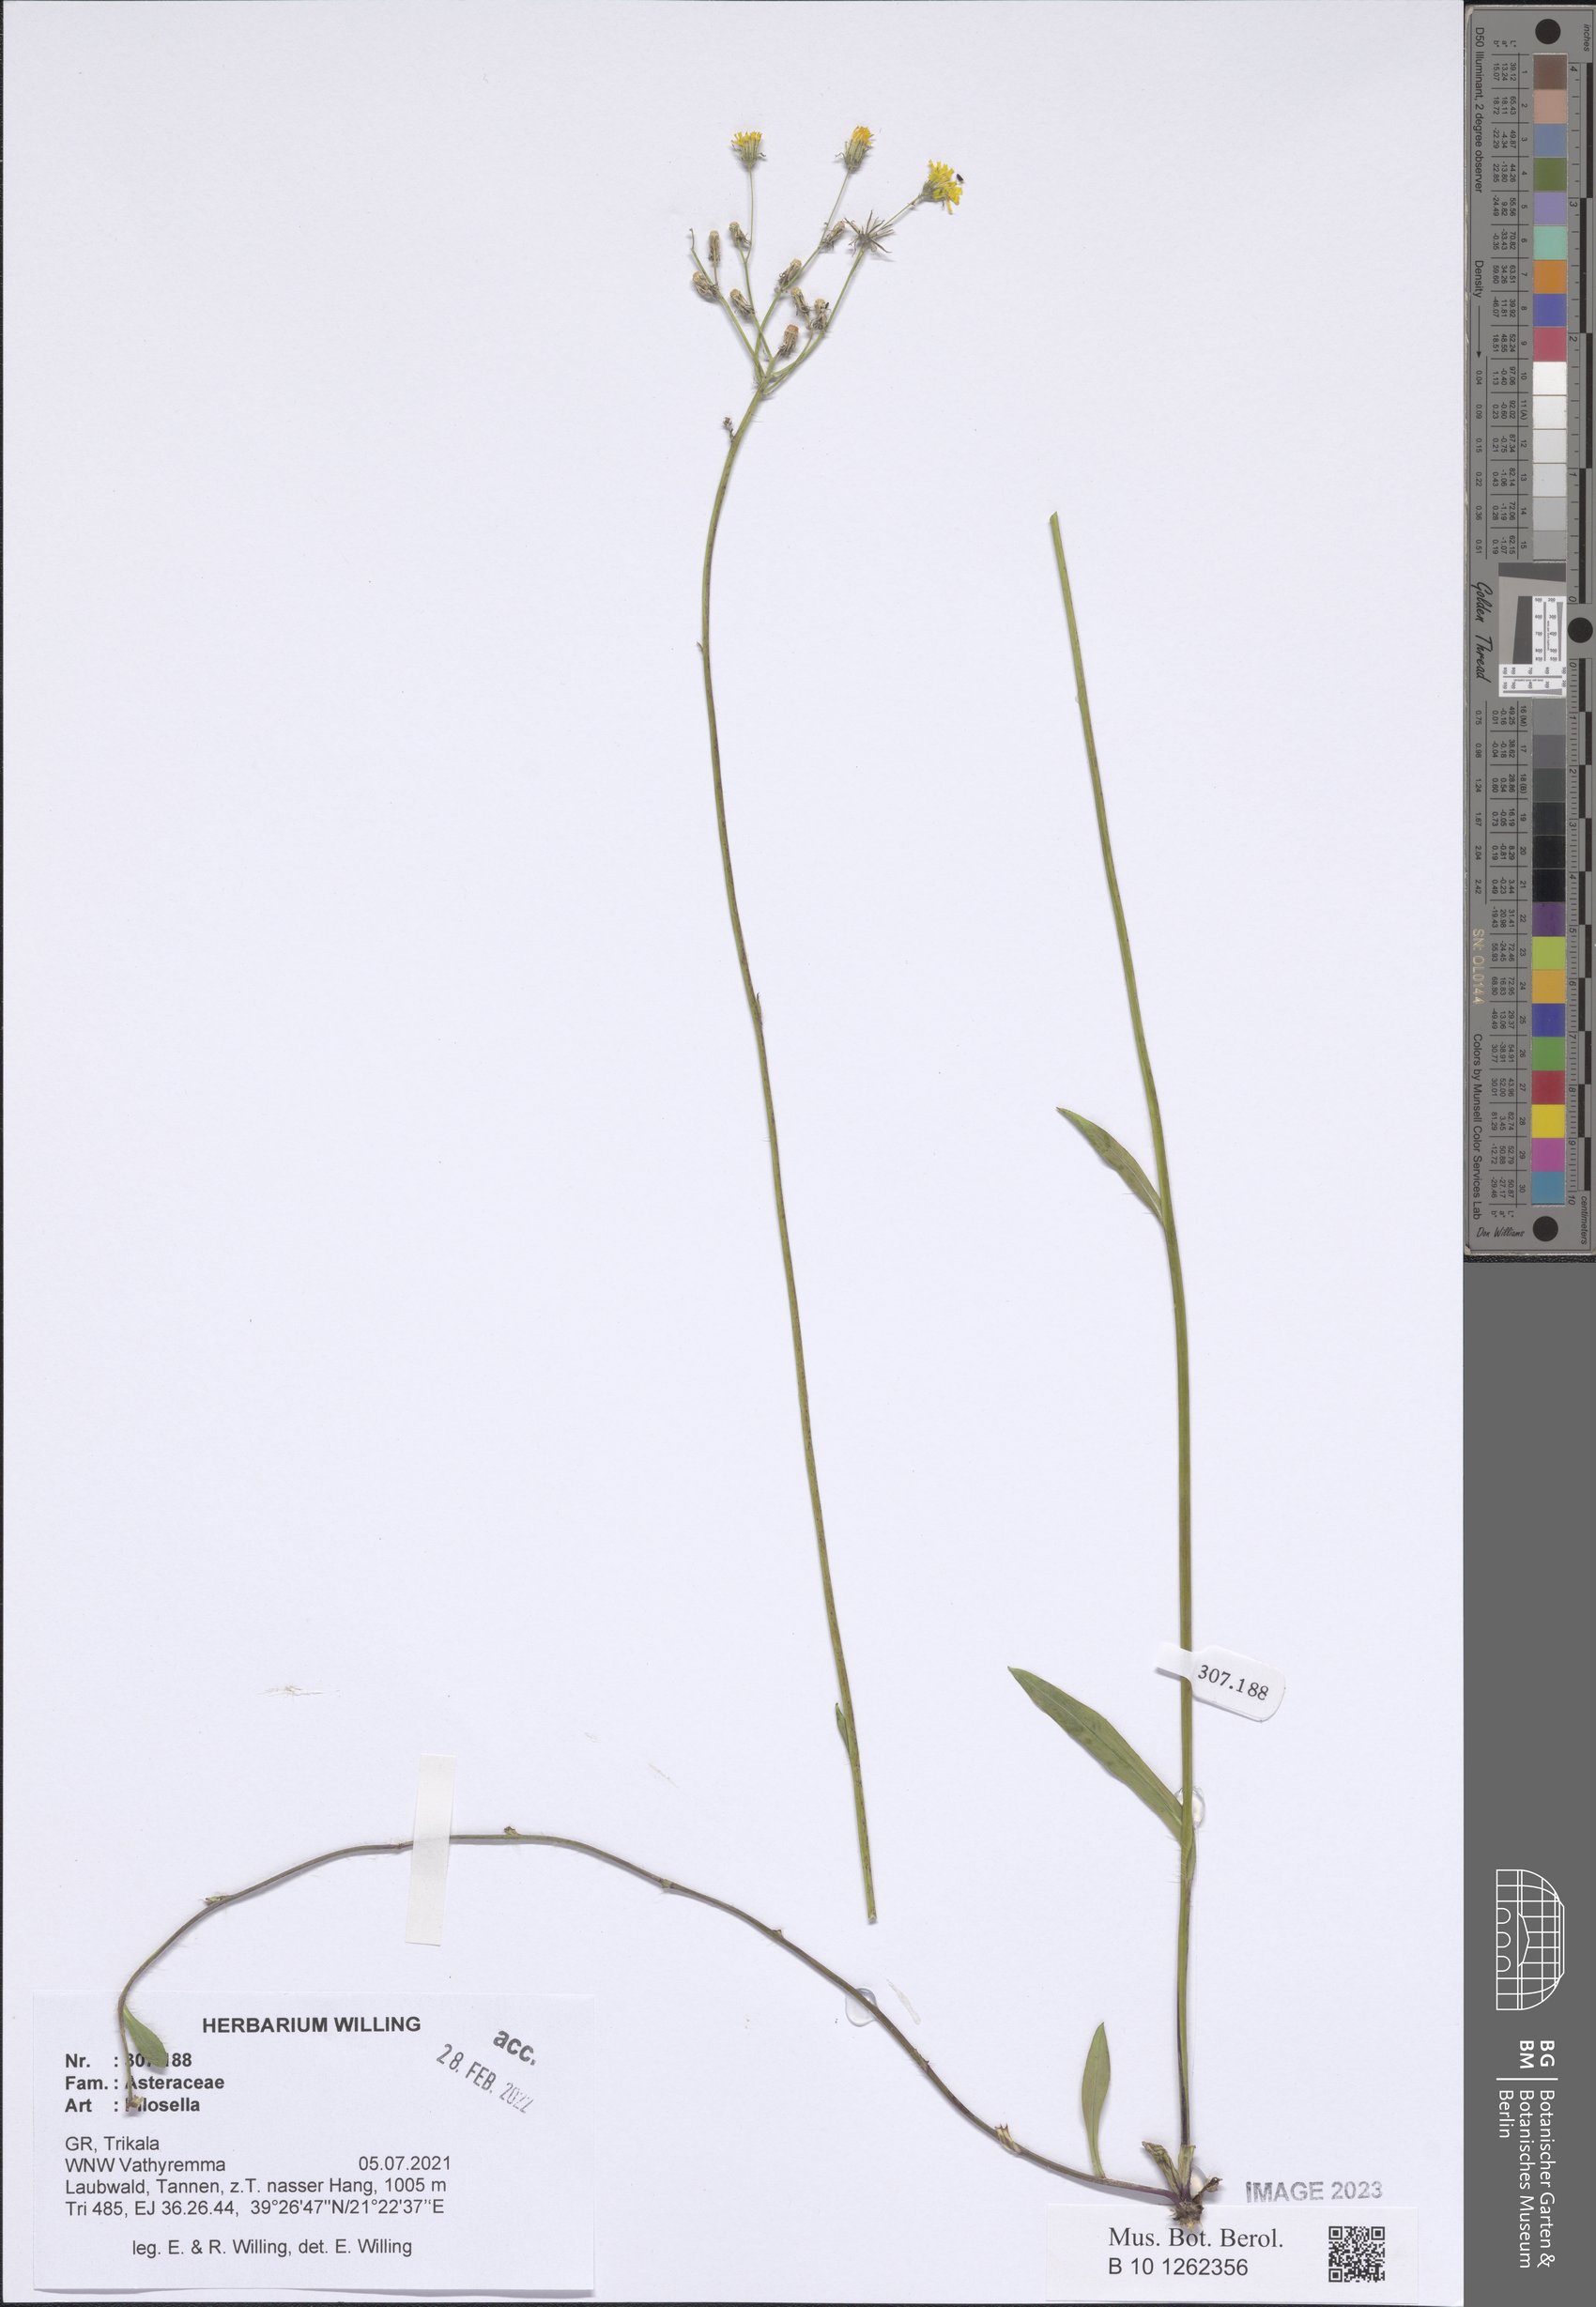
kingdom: Plantae
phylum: Tracheophyta
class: Magnoliopsida
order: Asterales
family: Asteraceae
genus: Pilosella
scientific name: Pilosella
